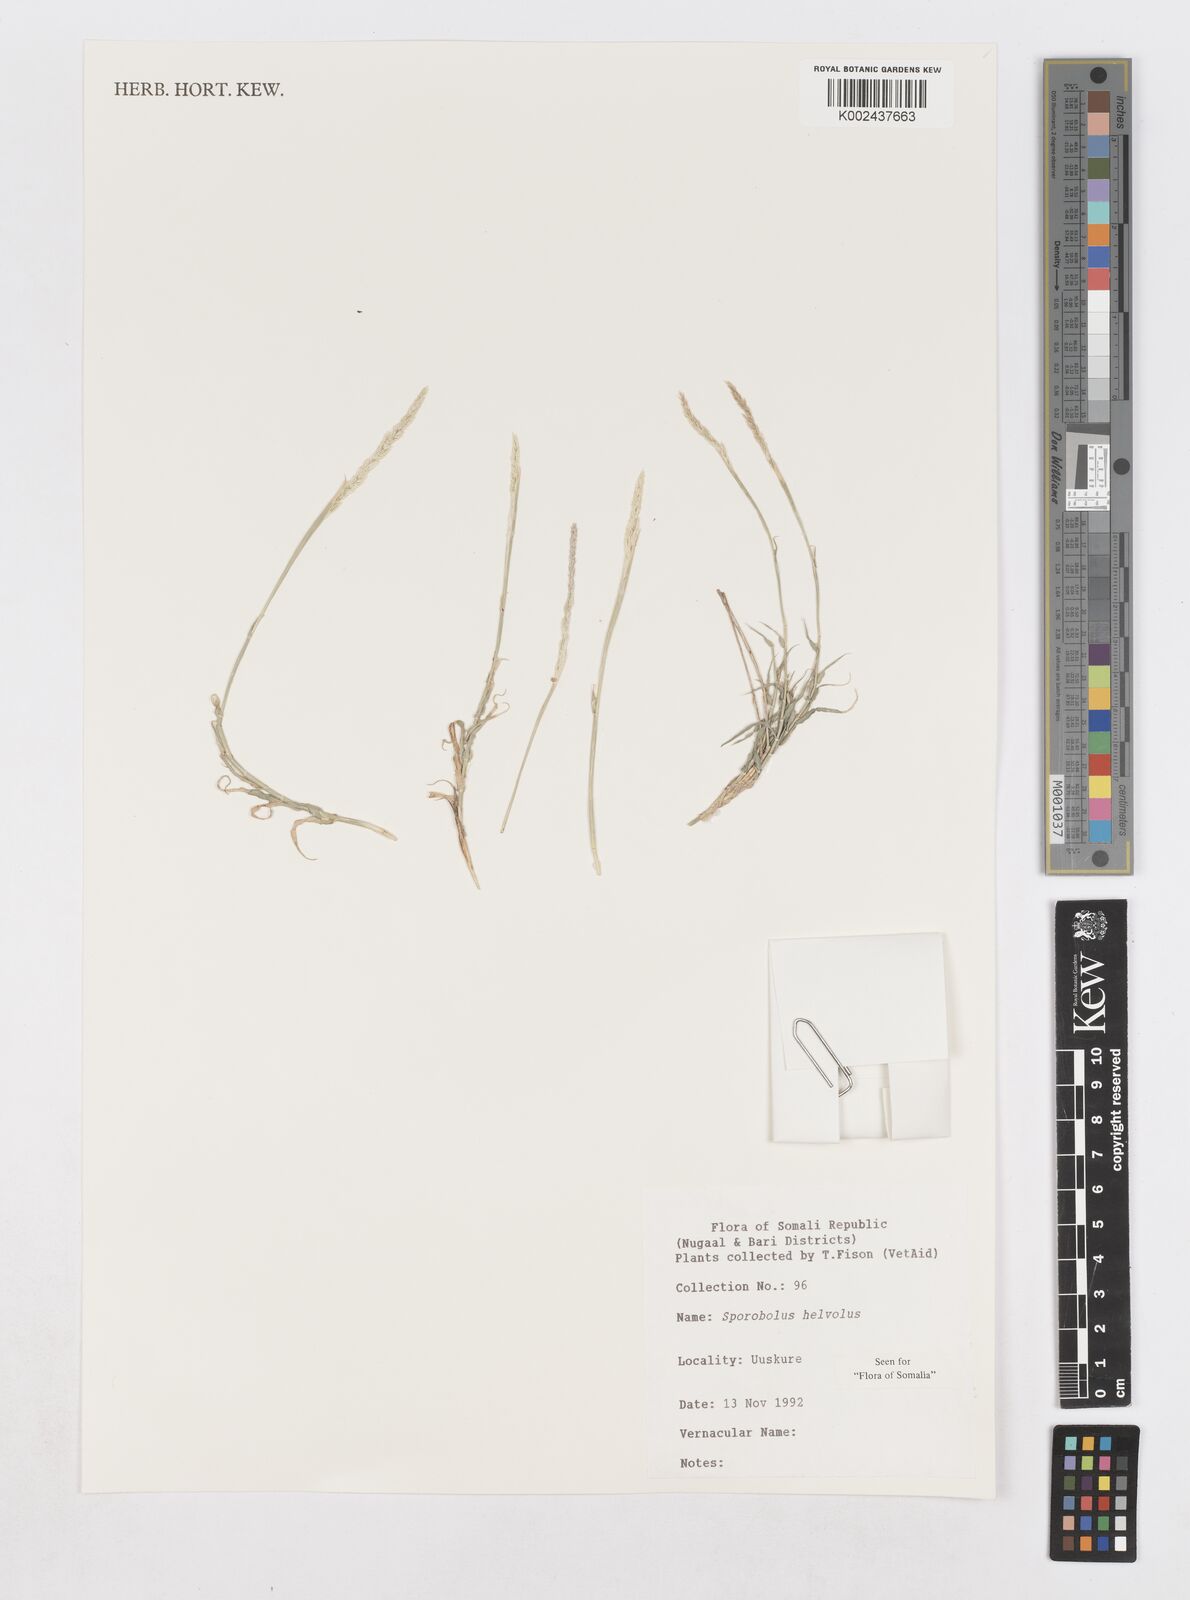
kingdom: Plantae
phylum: Tracheophyta
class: Liliopsida
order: Poales
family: Poaceae
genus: Sporobolus
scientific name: Sporobolus helvolus
